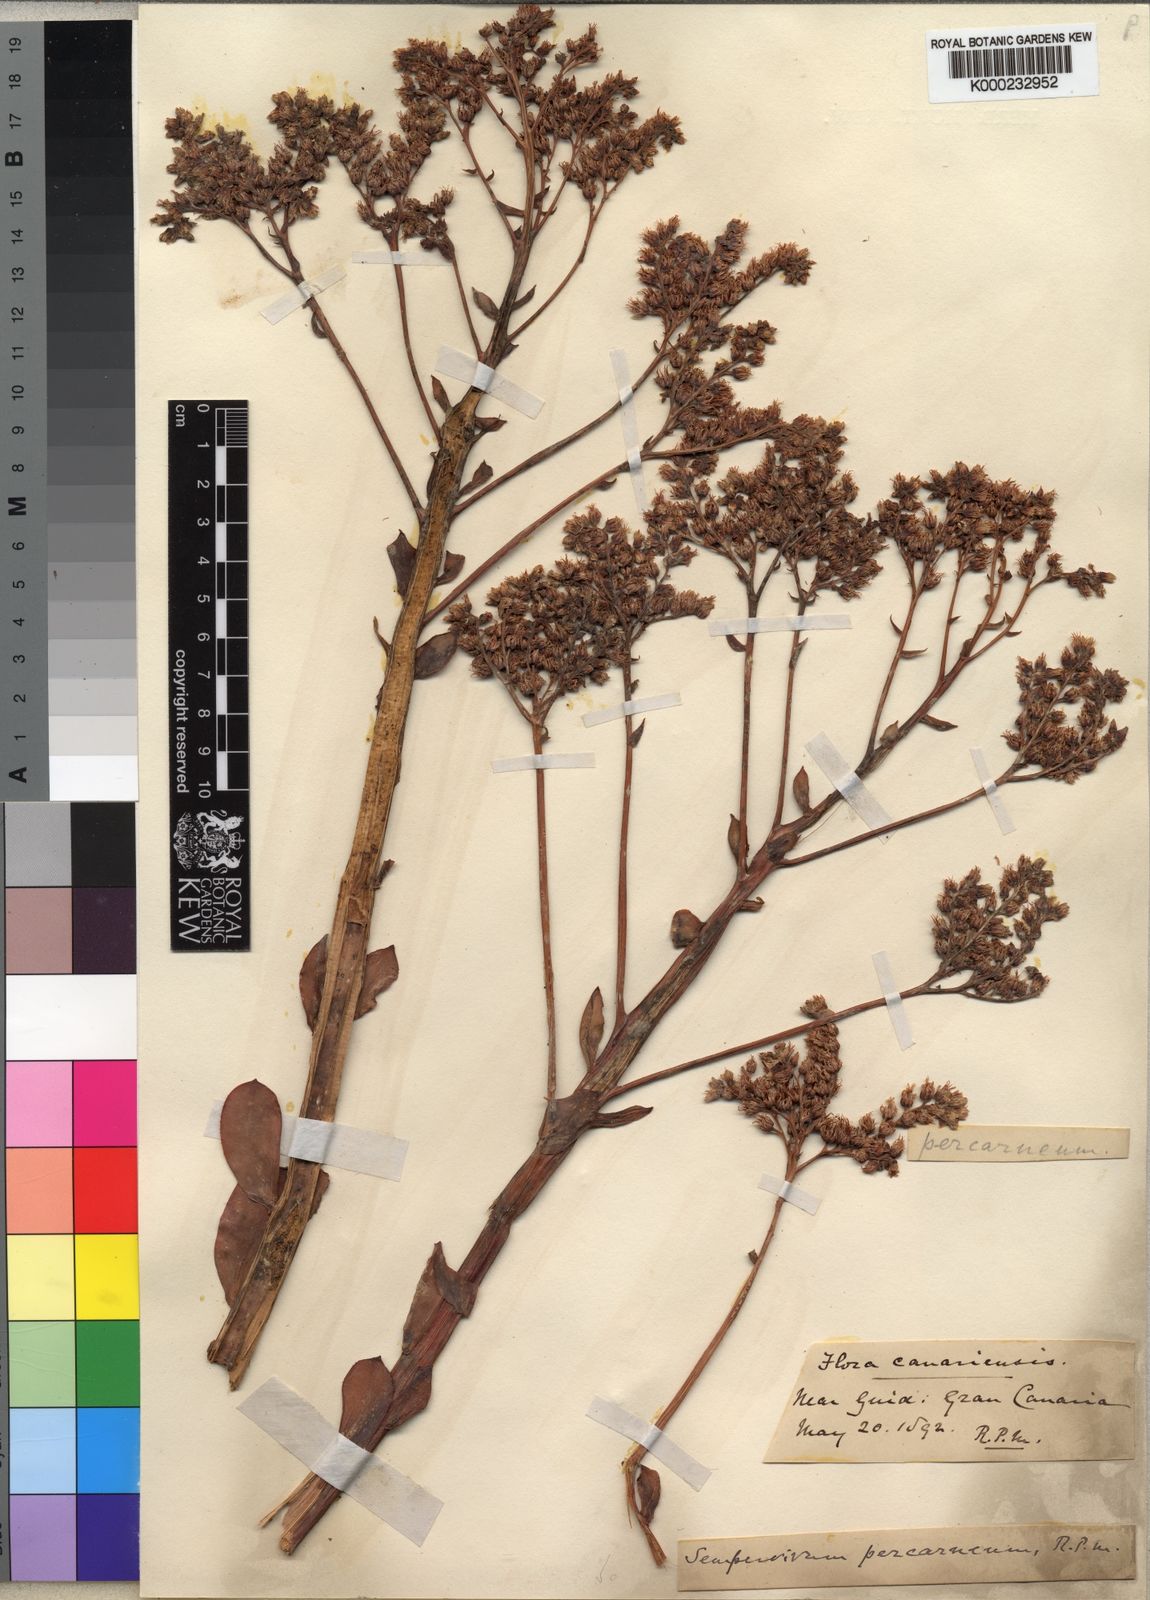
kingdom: Plantae
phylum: Tracheophyta
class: Magnoliopsida
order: Saxifragales
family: Crassulaceae
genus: Aeonium
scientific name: Aeonium percarneum
